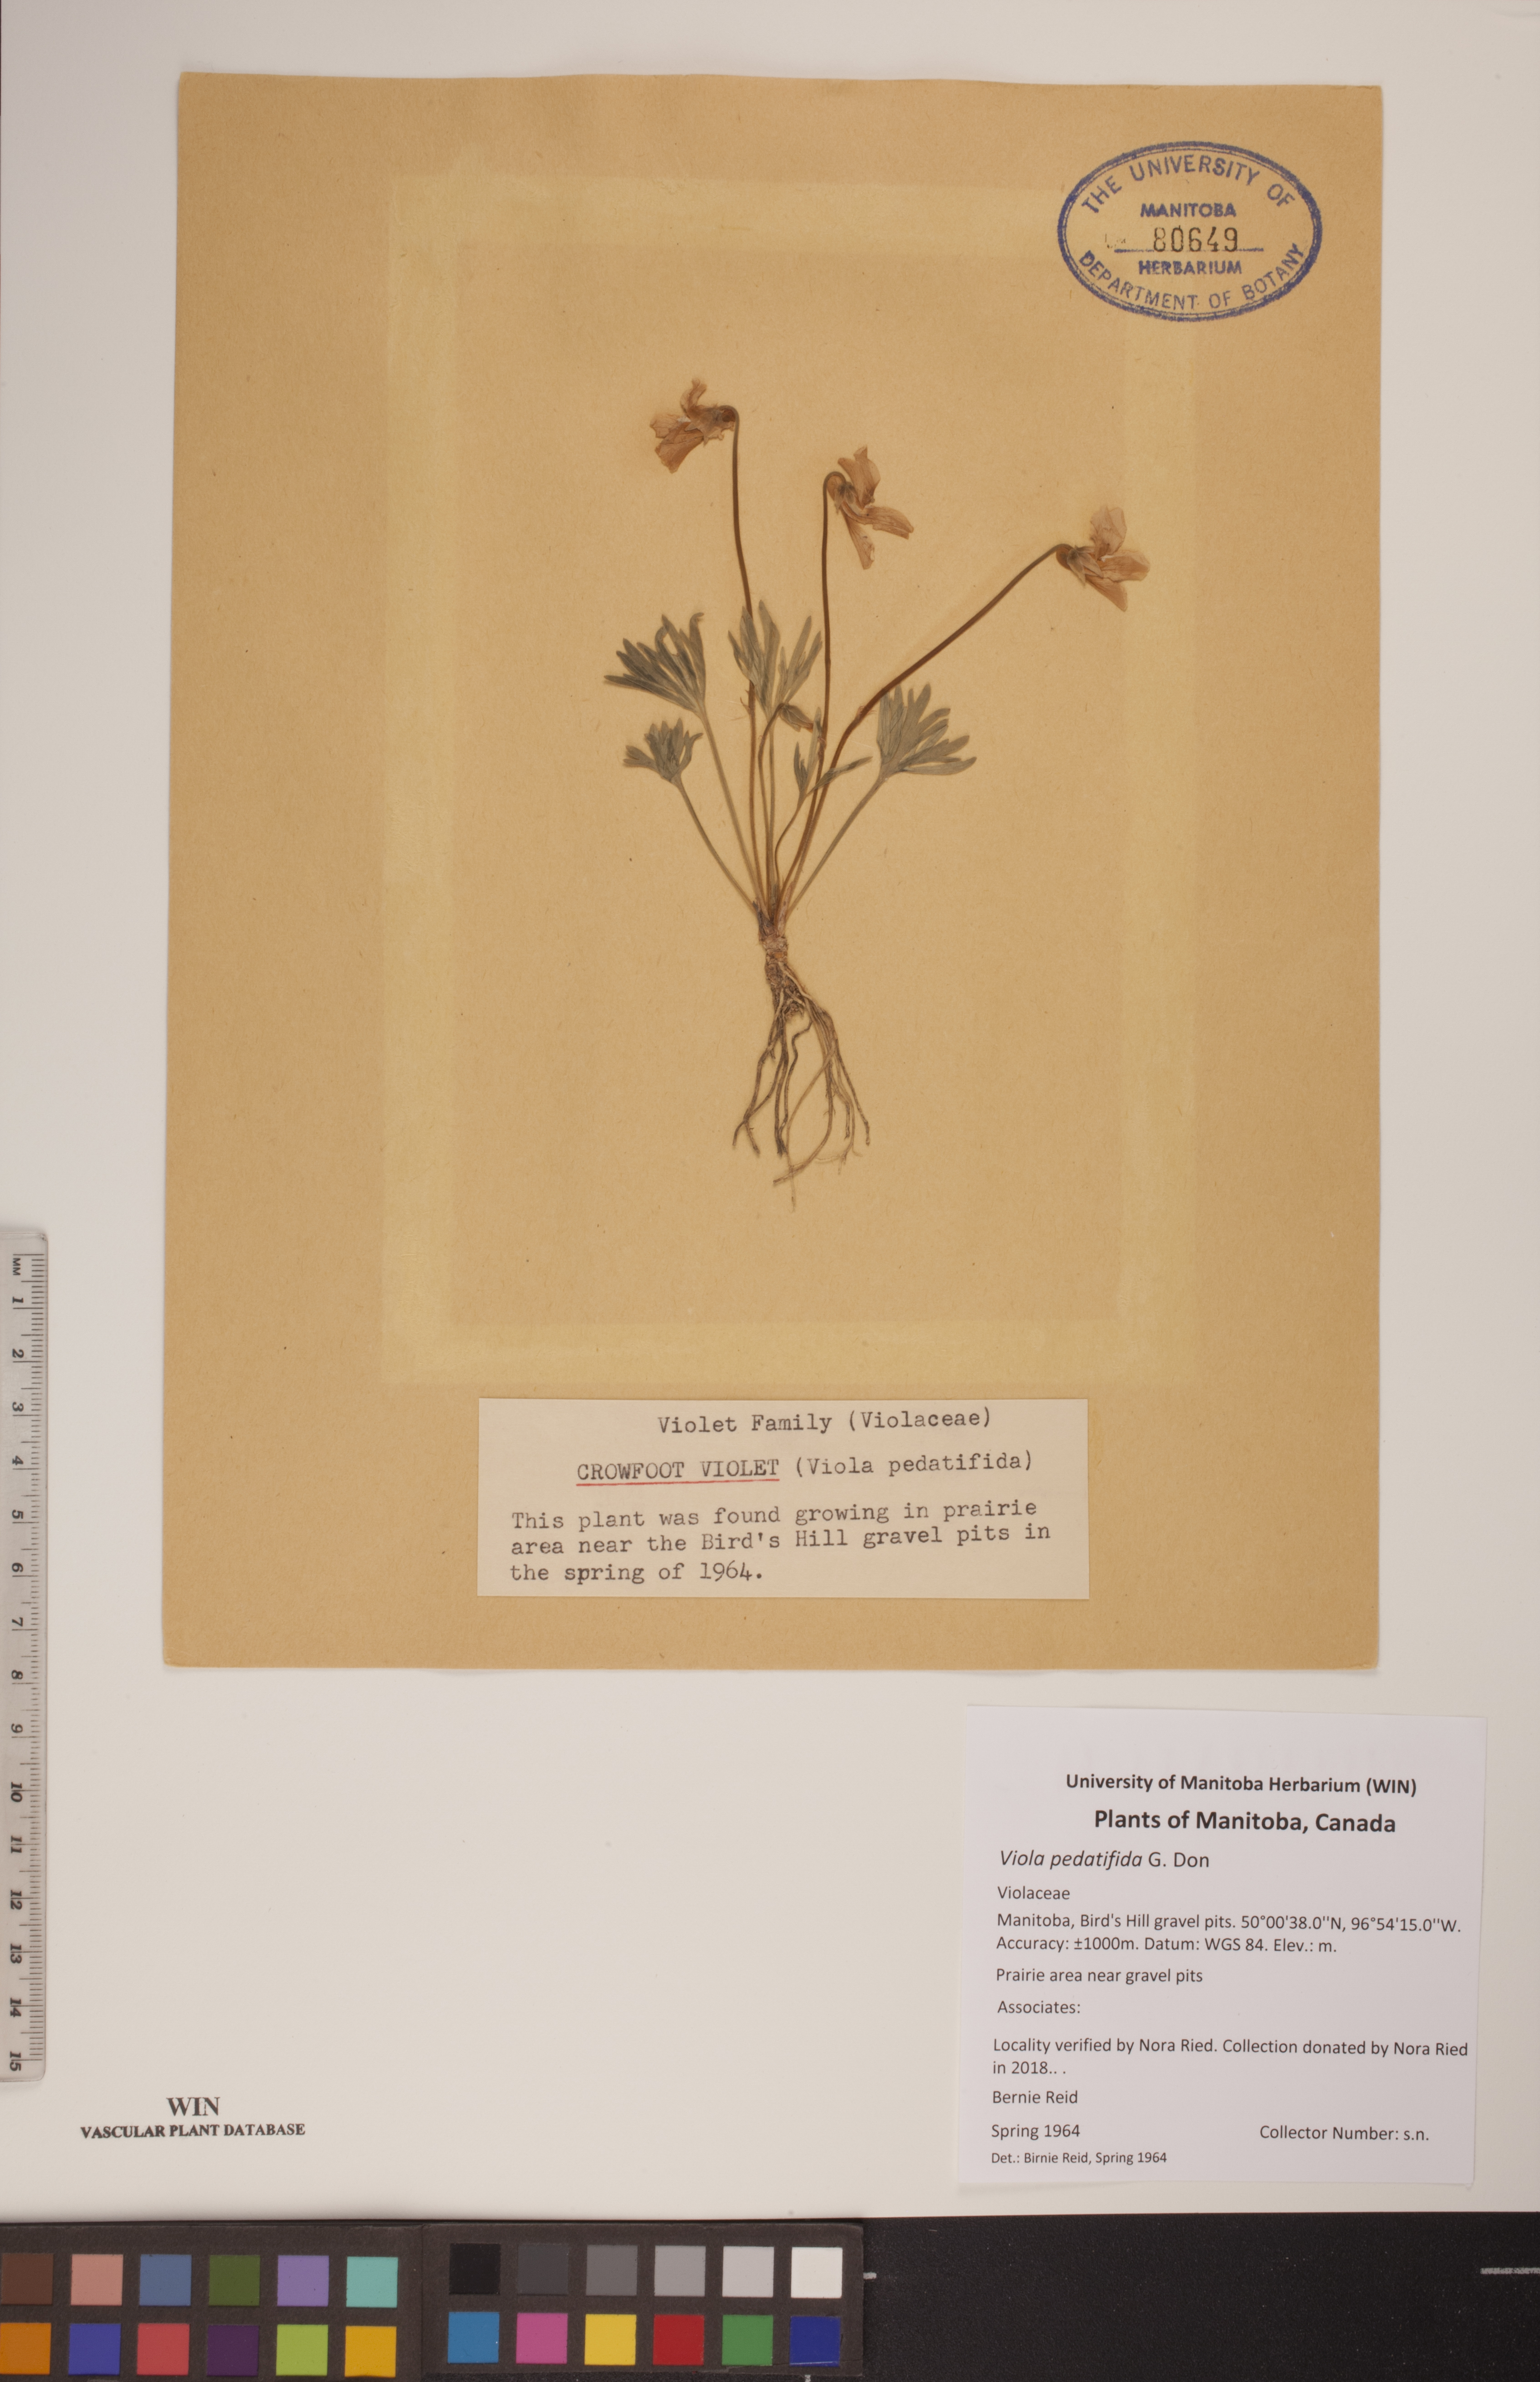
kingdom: Plantae
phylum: Tracheophyta
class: Magnoliopsida
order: Malpighiales
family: Violaceae
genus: Viola
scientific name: Viola pedatifida
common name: Prairie violet
